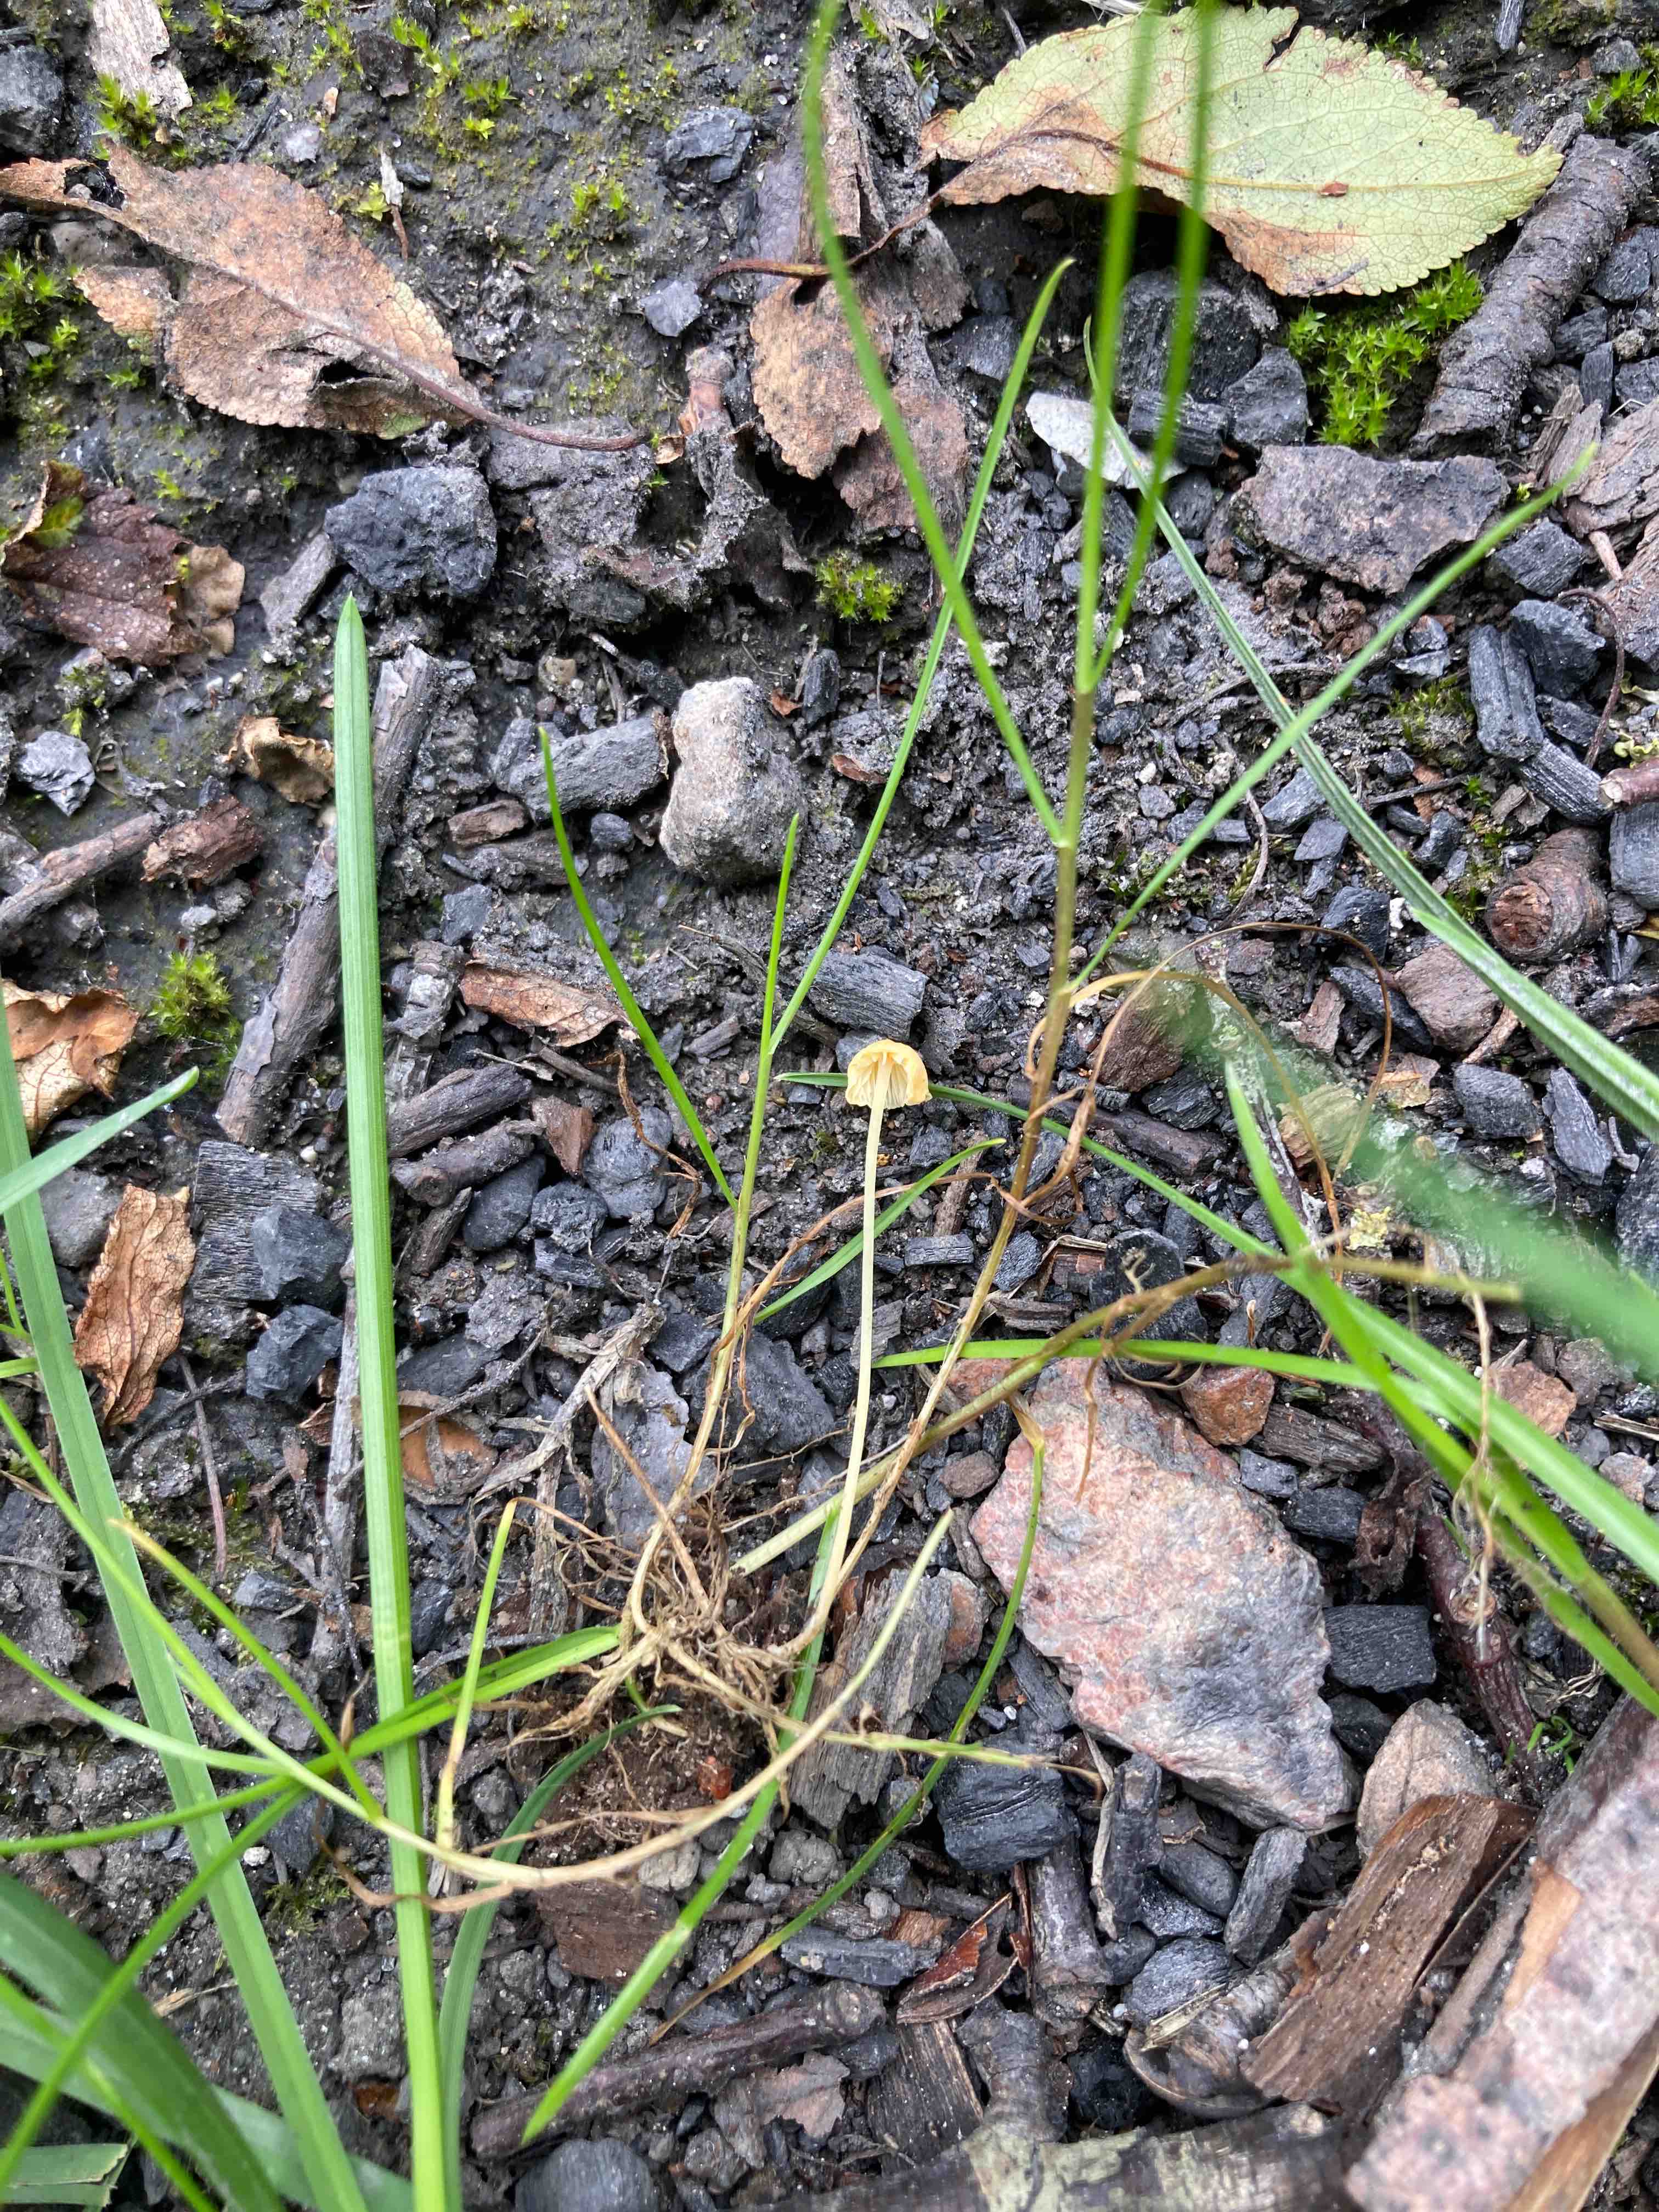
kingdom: Fungi
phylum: Basidiomycota
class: Agaricomycetes
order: Agaricales
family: Mycenaceae
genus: Mycena
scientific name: Mycena acicula
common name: orange huesvamp
